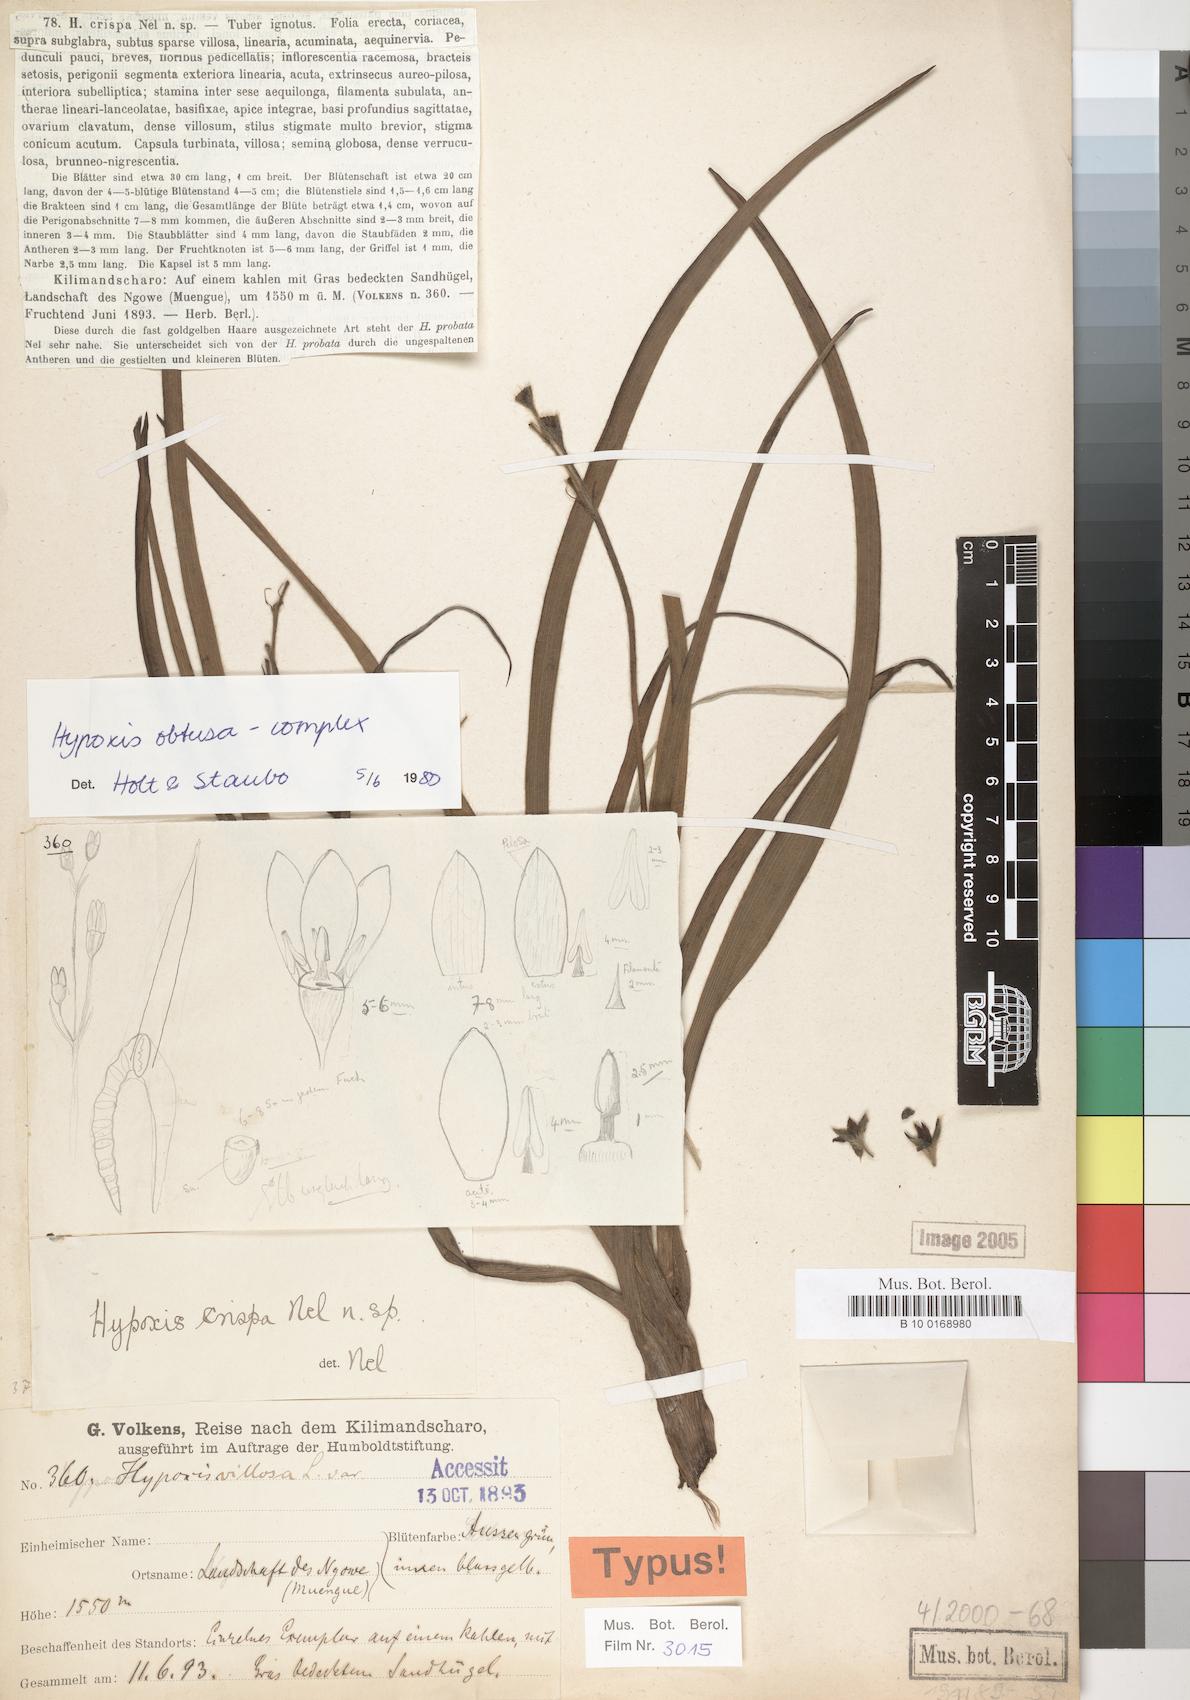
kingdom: Plantae
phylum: Tracheophyta
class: Liliopsida
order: Asparagales
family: Hypoxidaceae
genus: Hypoxis
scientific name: Hypoxis
